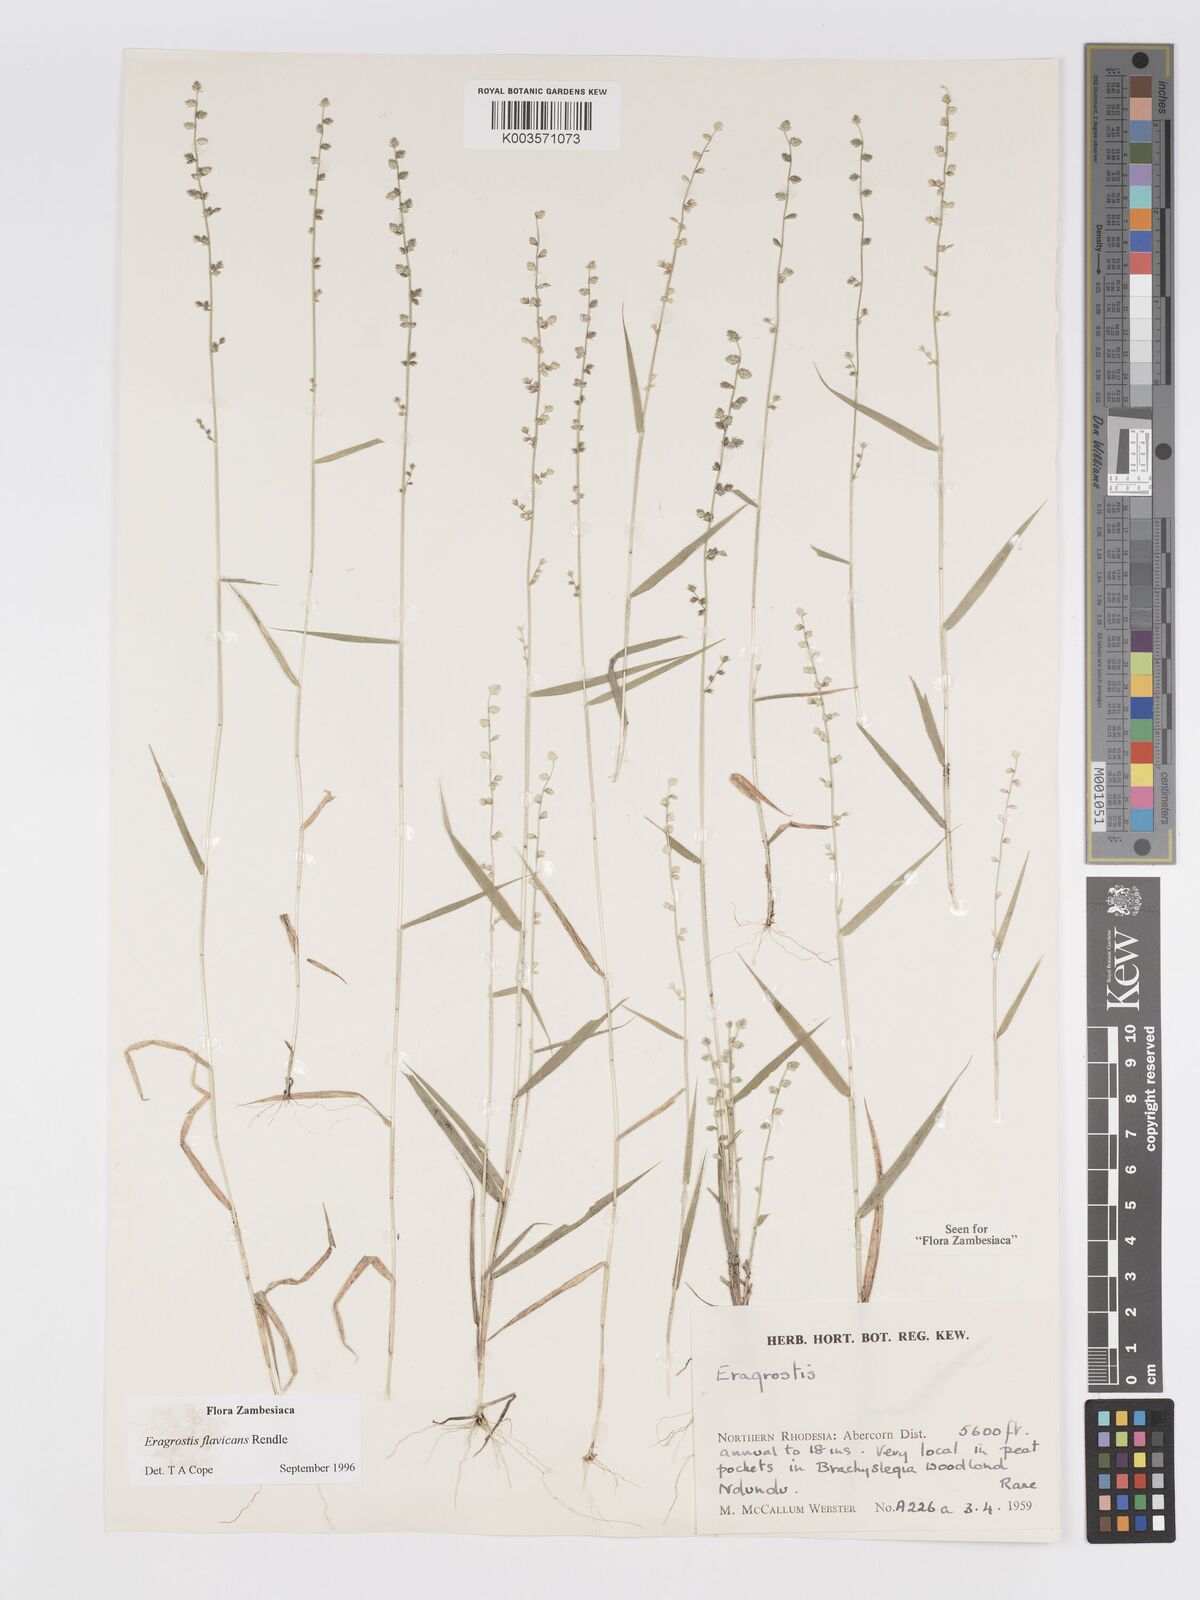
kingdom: Plantae
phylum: Tracheophyta
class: Liliopsida
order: Poales
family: Poaceae
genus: Eragrostis
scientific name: Eragrostis flavicans
